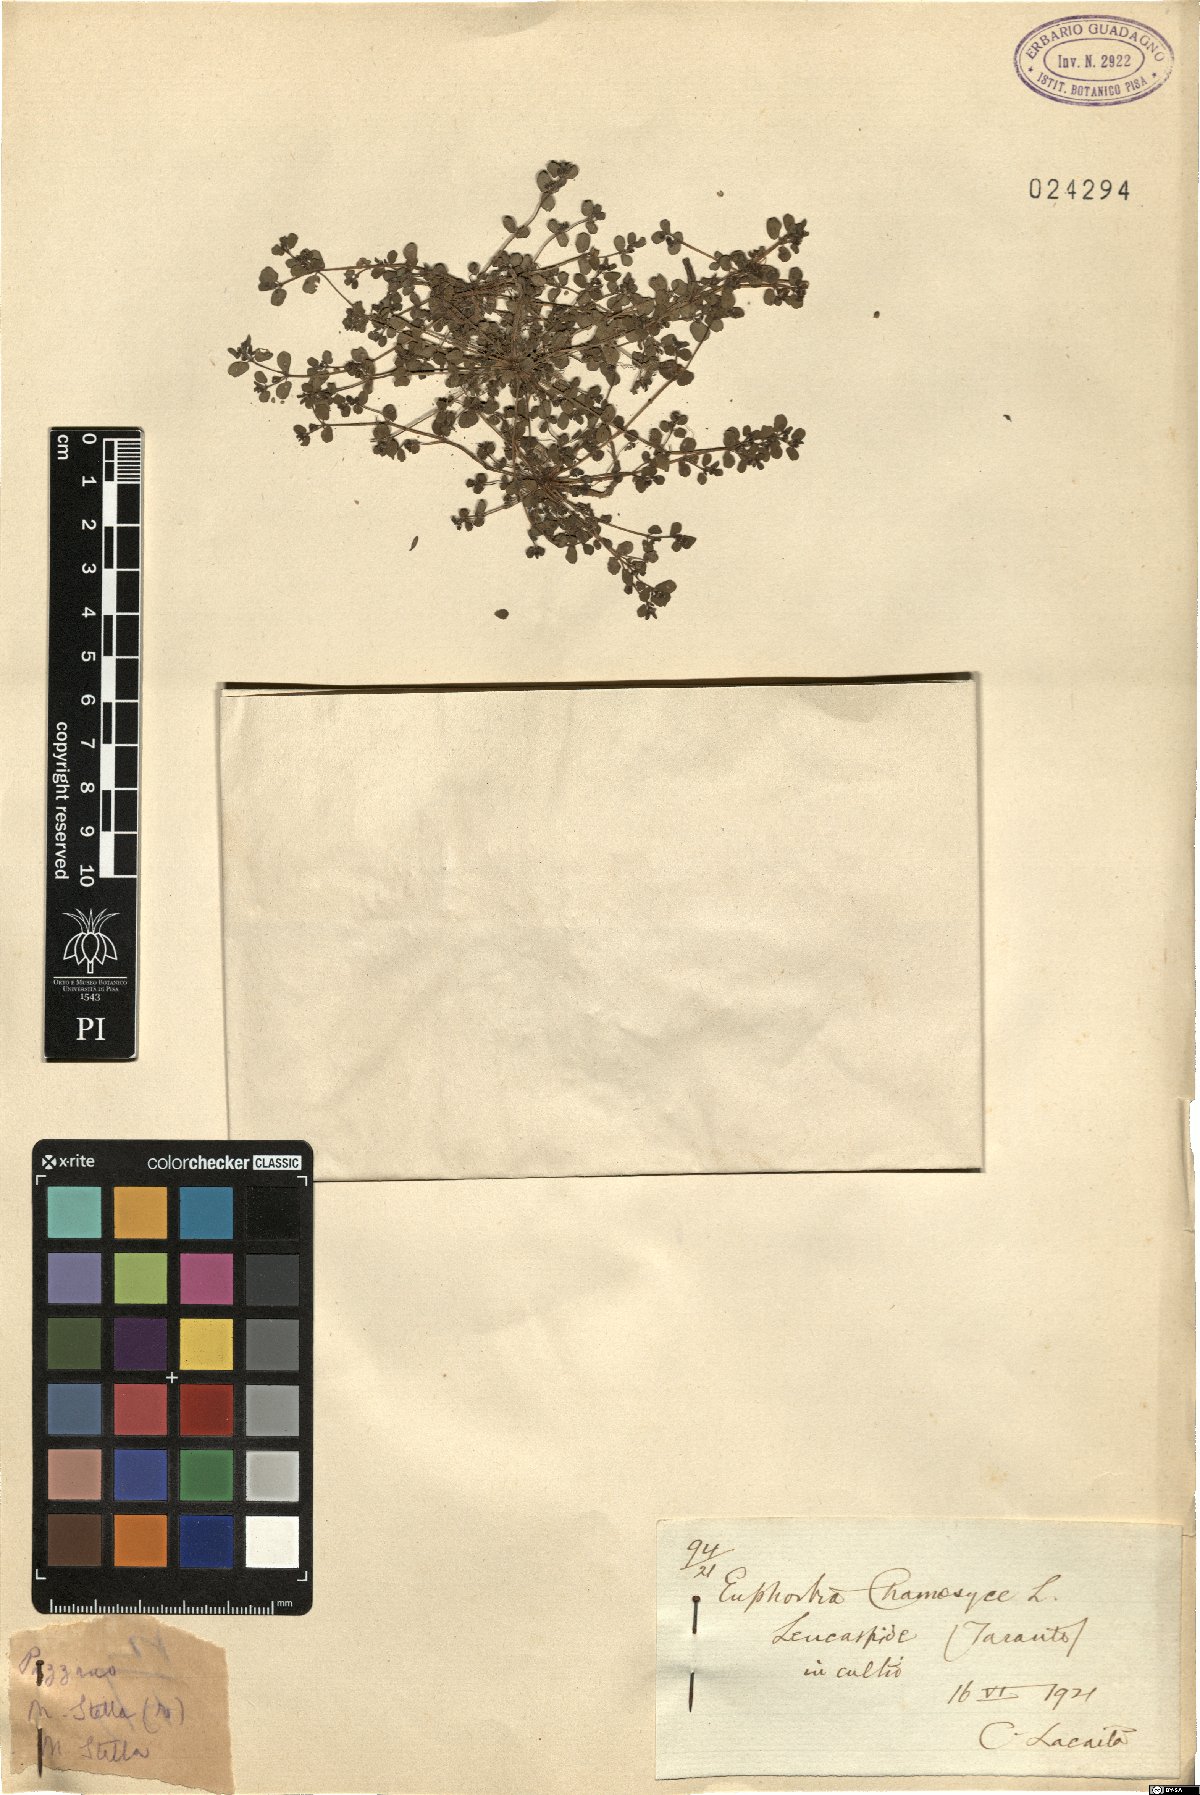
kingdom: Plantae
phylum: Tracheophyta
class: Magnoliopsida
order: Malpighiales
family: Euphorbiaceae
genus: Euphorbia
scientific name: Euphorbia chamaesyce
